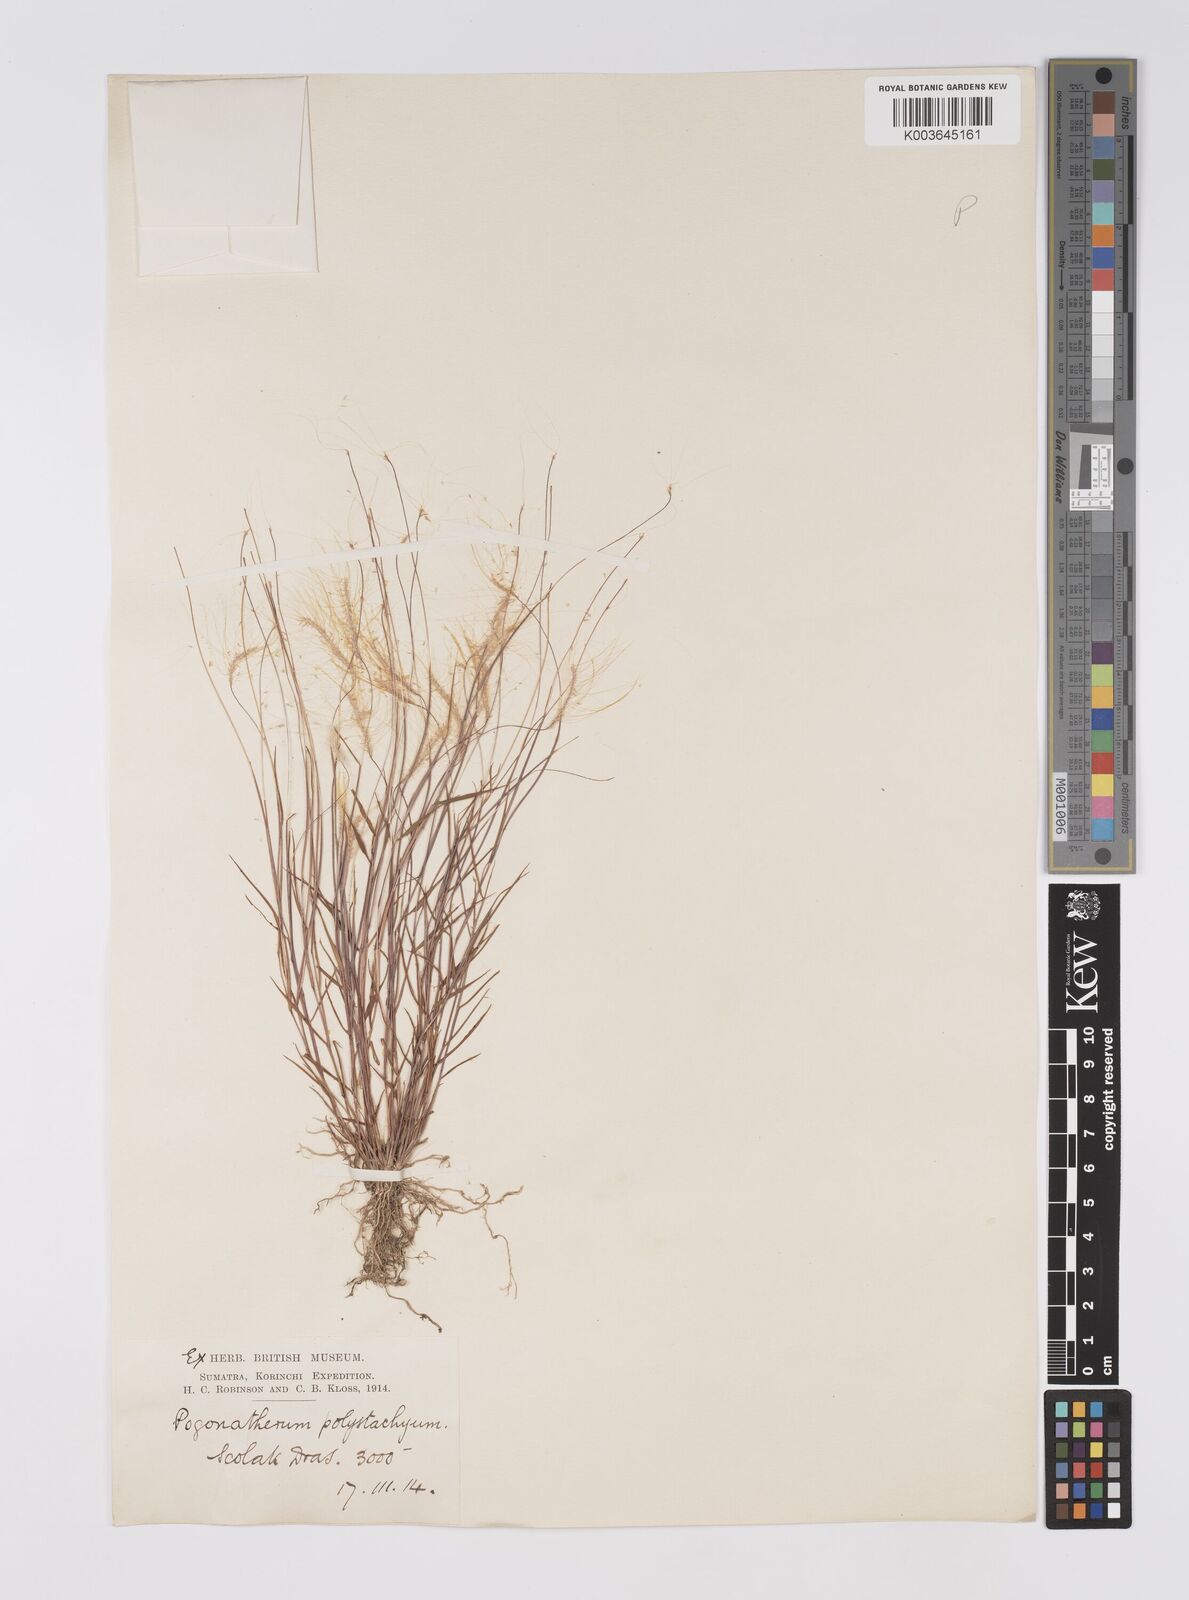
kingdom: Plantae
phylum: Tracheophyta
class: Liliopsida
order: Poales
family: Poaceae
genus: Pogonatherum
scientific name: Pogonatherum crinitum
